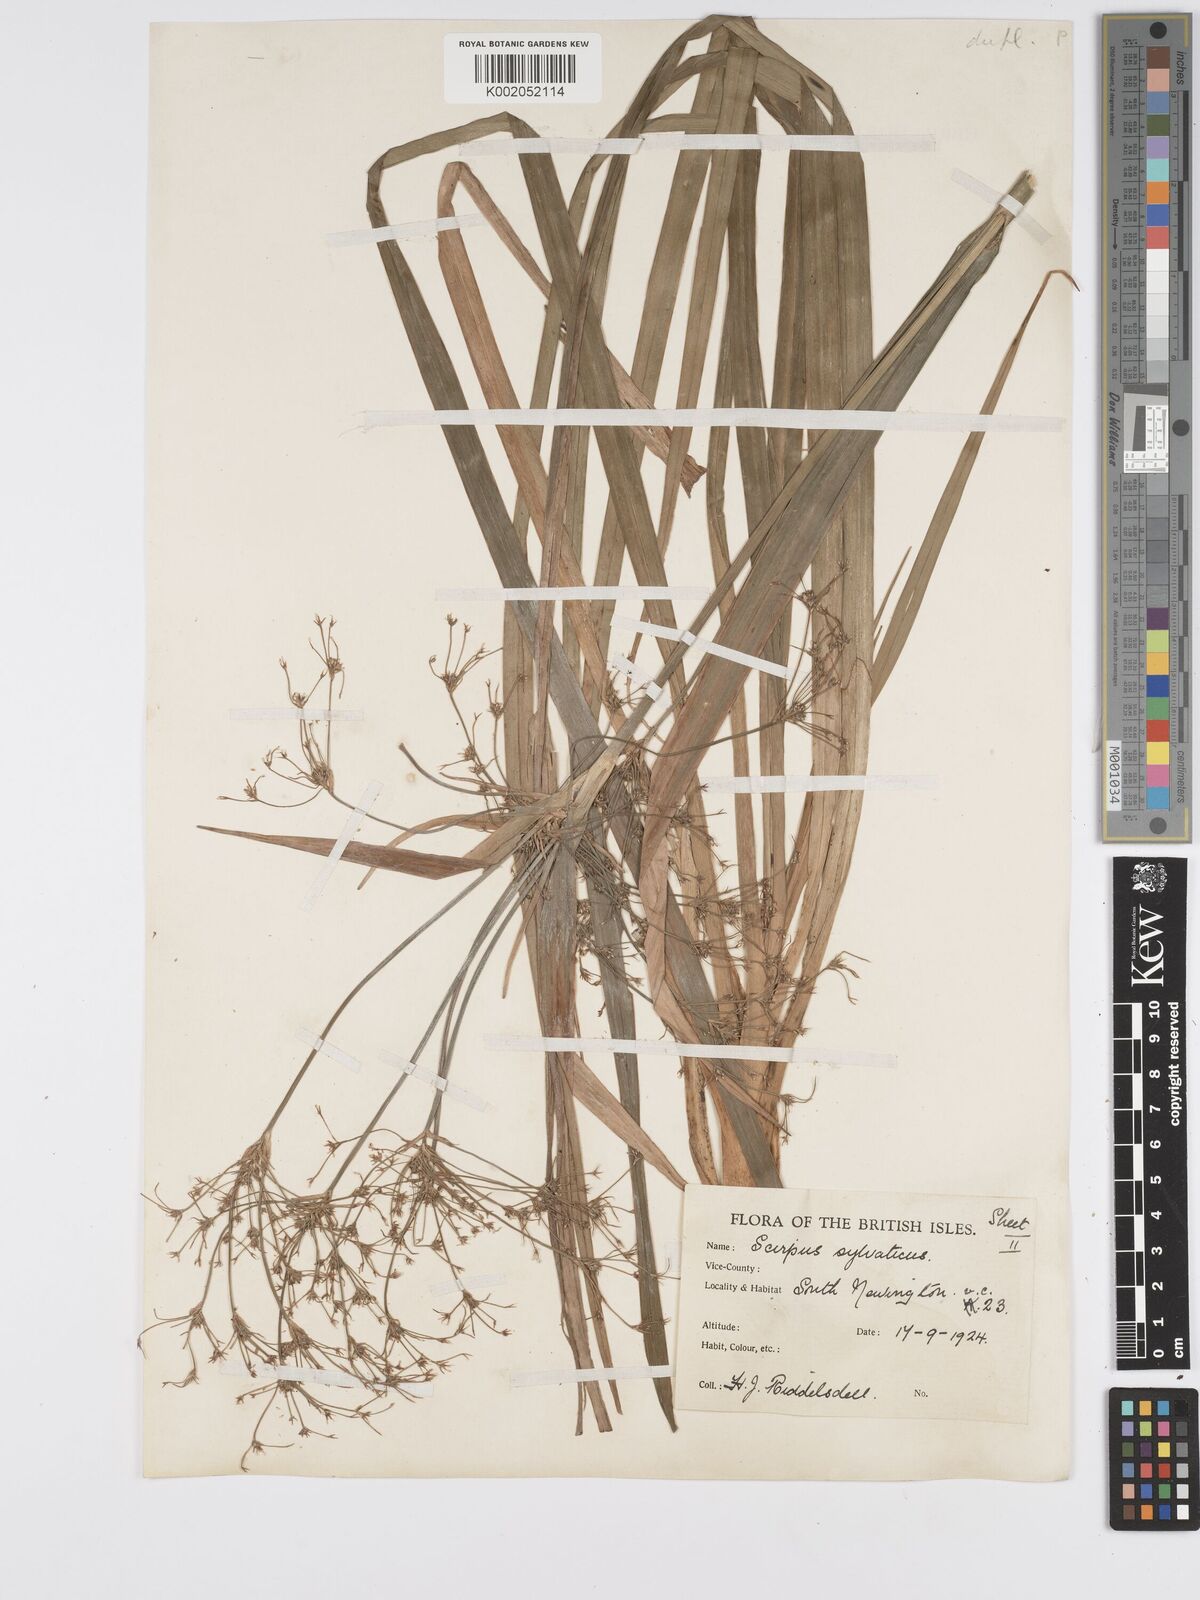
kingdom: Plantae
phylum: Tracheophyta
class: Liliopsida
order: Poales
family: Cyperaceae
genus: Scirpus
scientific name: Scirpus sylvaticus
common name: Wood club-rush
